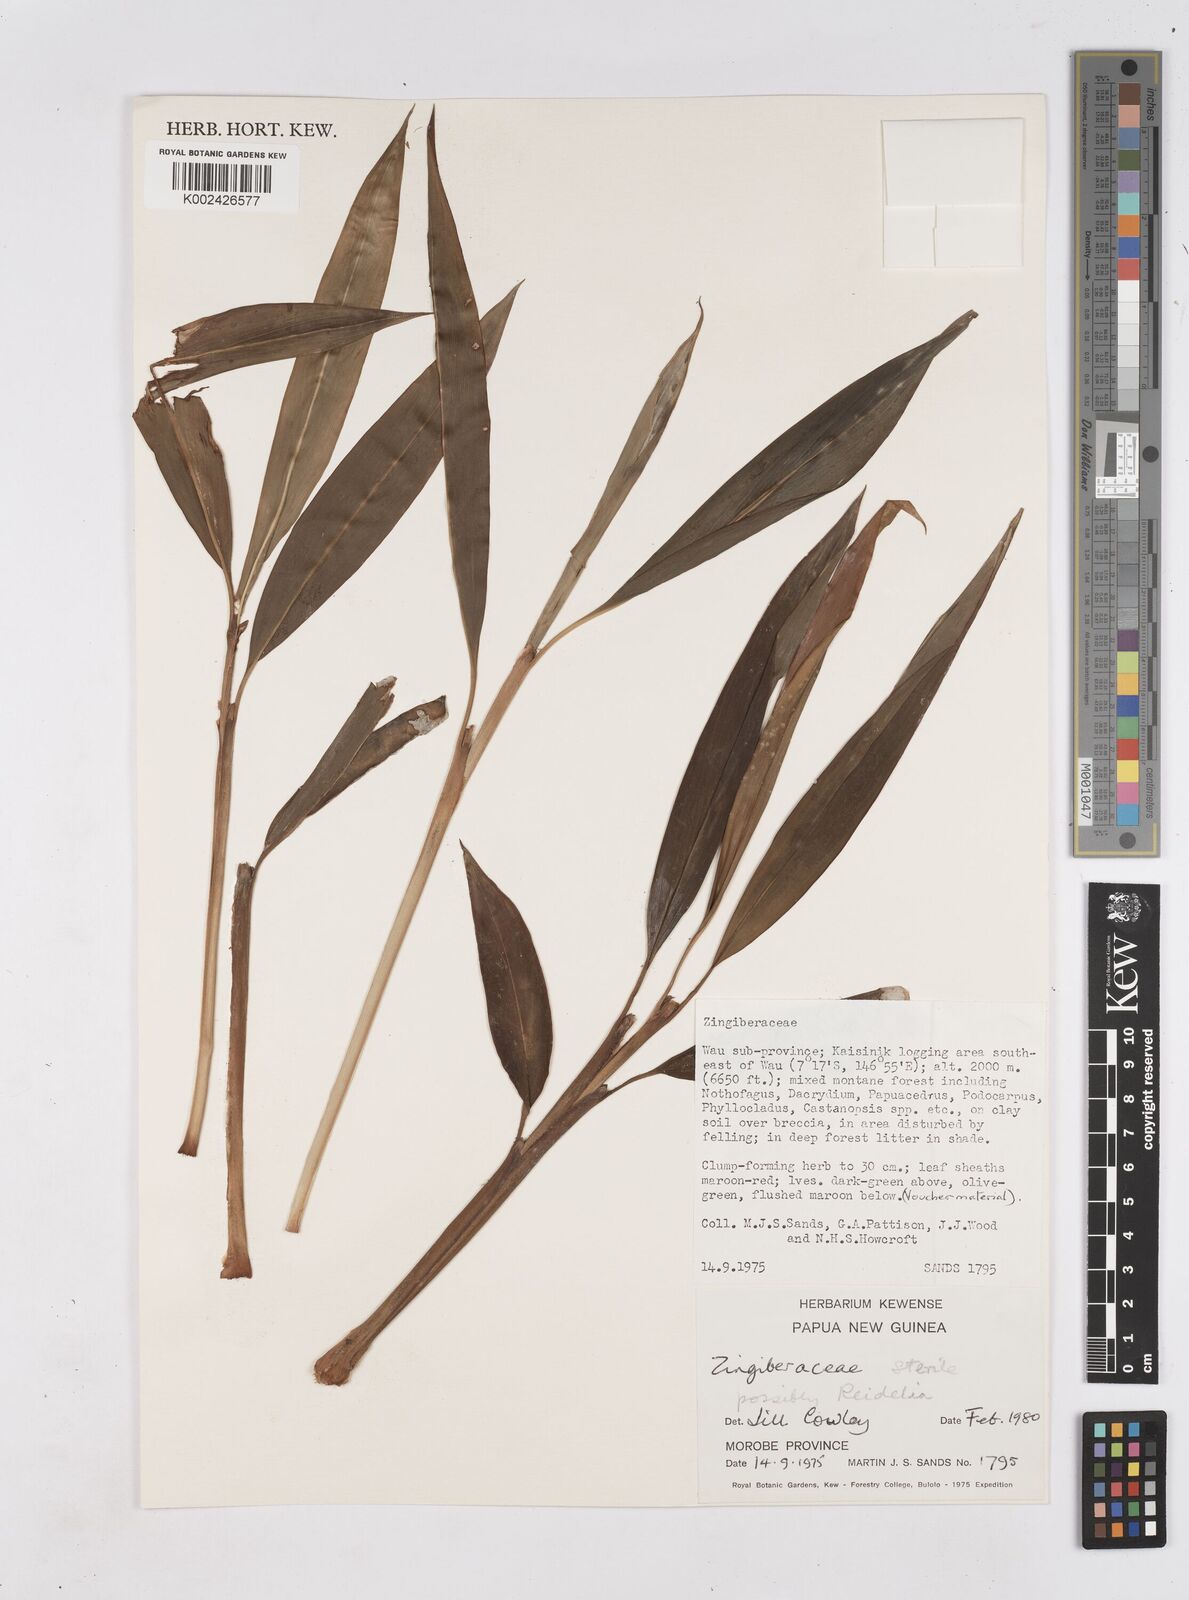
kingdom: Plantae
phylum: Tracheophyta
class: Liliopsida
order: Zingiberales
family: Zingiberaceae
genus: Riedelia
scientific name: Riedelia
